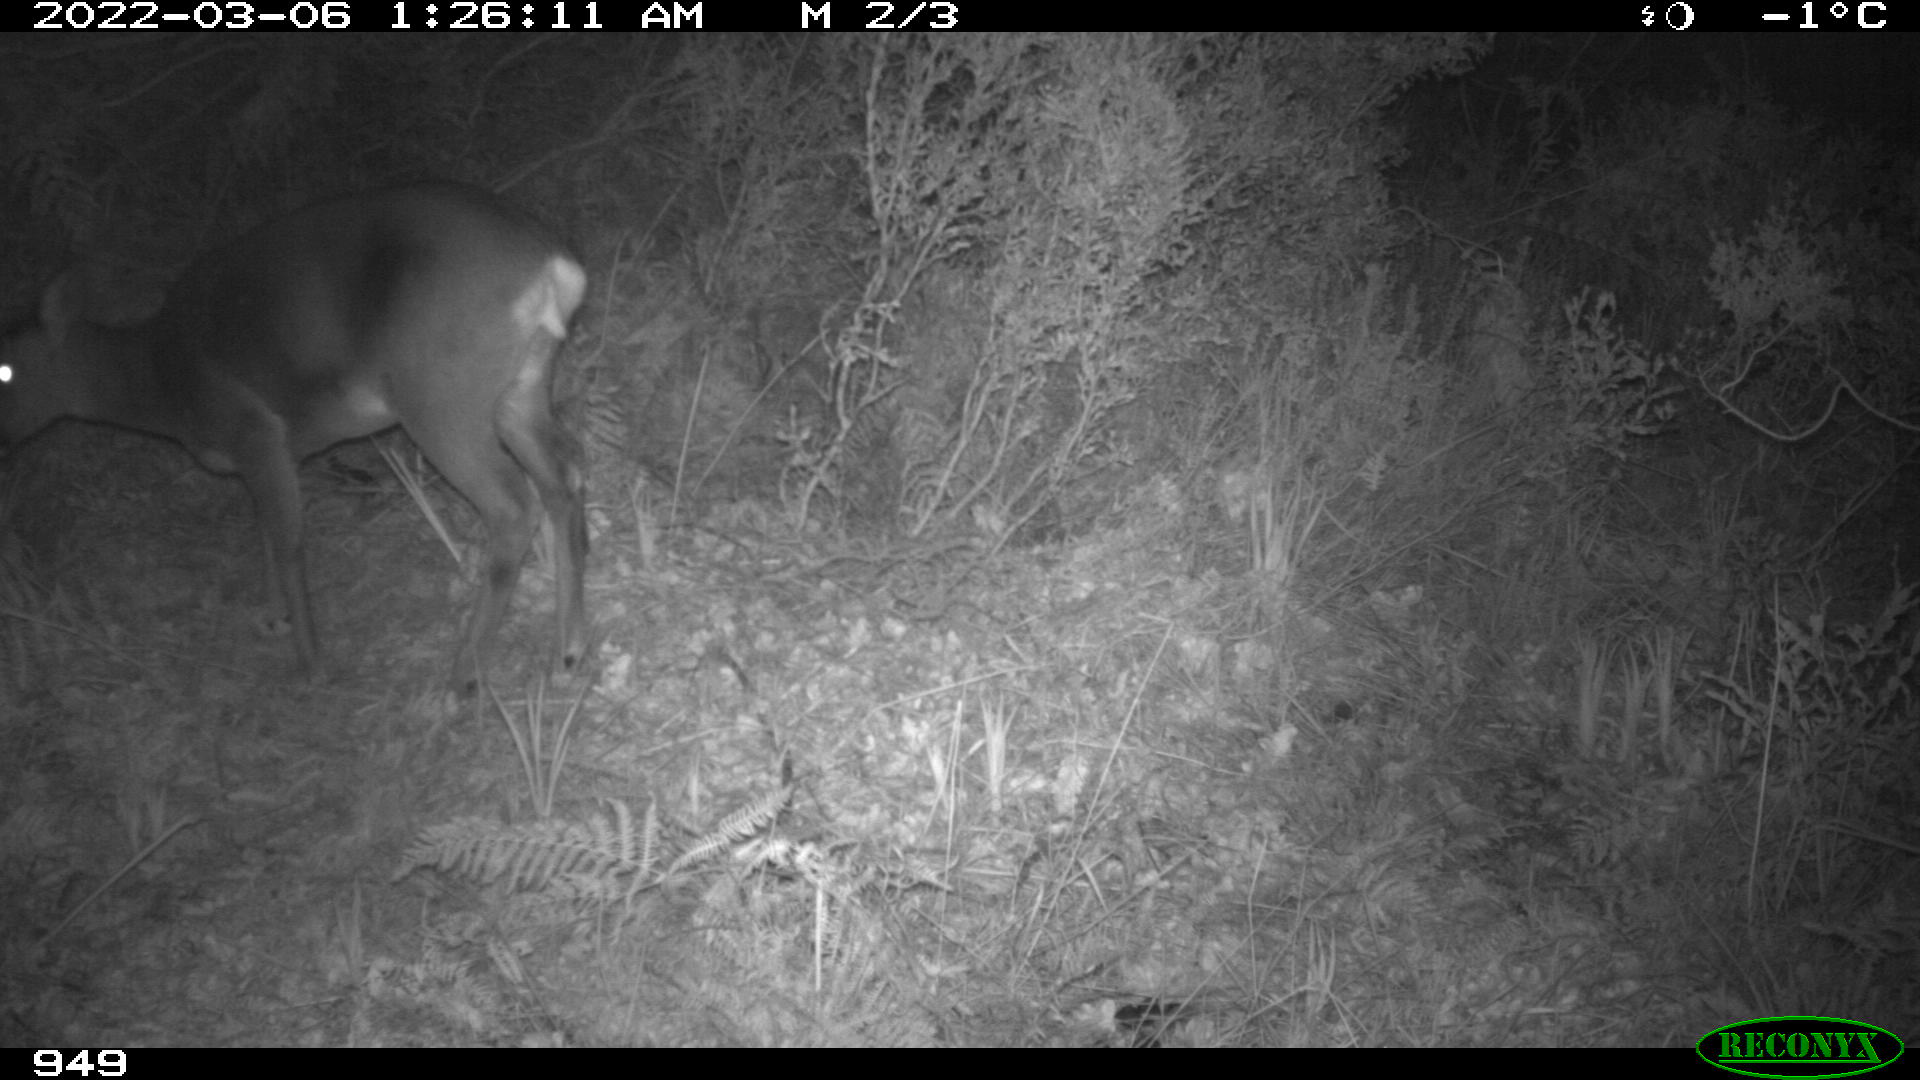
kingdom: Animalia
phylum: Chordata
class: Mammalia
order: Artiodactyla
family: Cervidae
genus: Capreolus
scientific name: Capreolus capreolus
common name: Western roe deer
